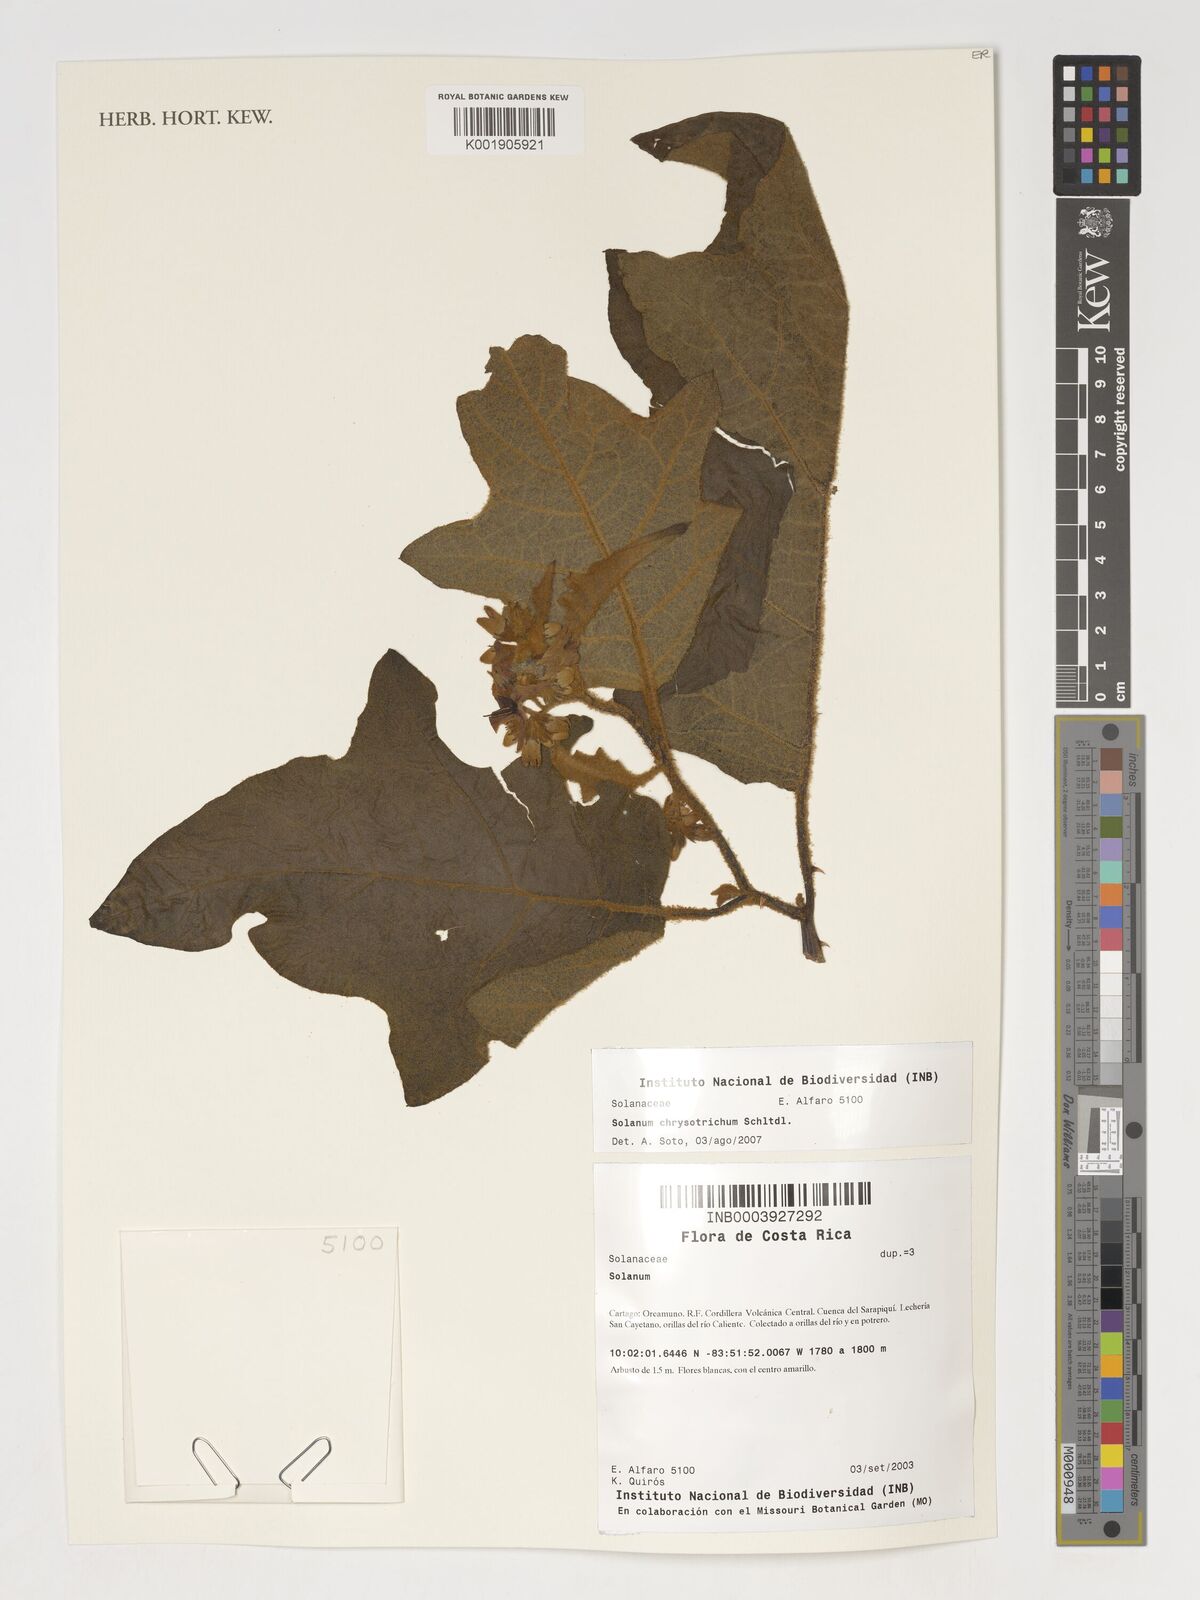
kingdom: Plantae
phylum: Tracheophyta
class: Magnoliopsida
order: Solanales
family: Solanaceae
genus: Solanum
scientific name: Solanum aureitomentosum
